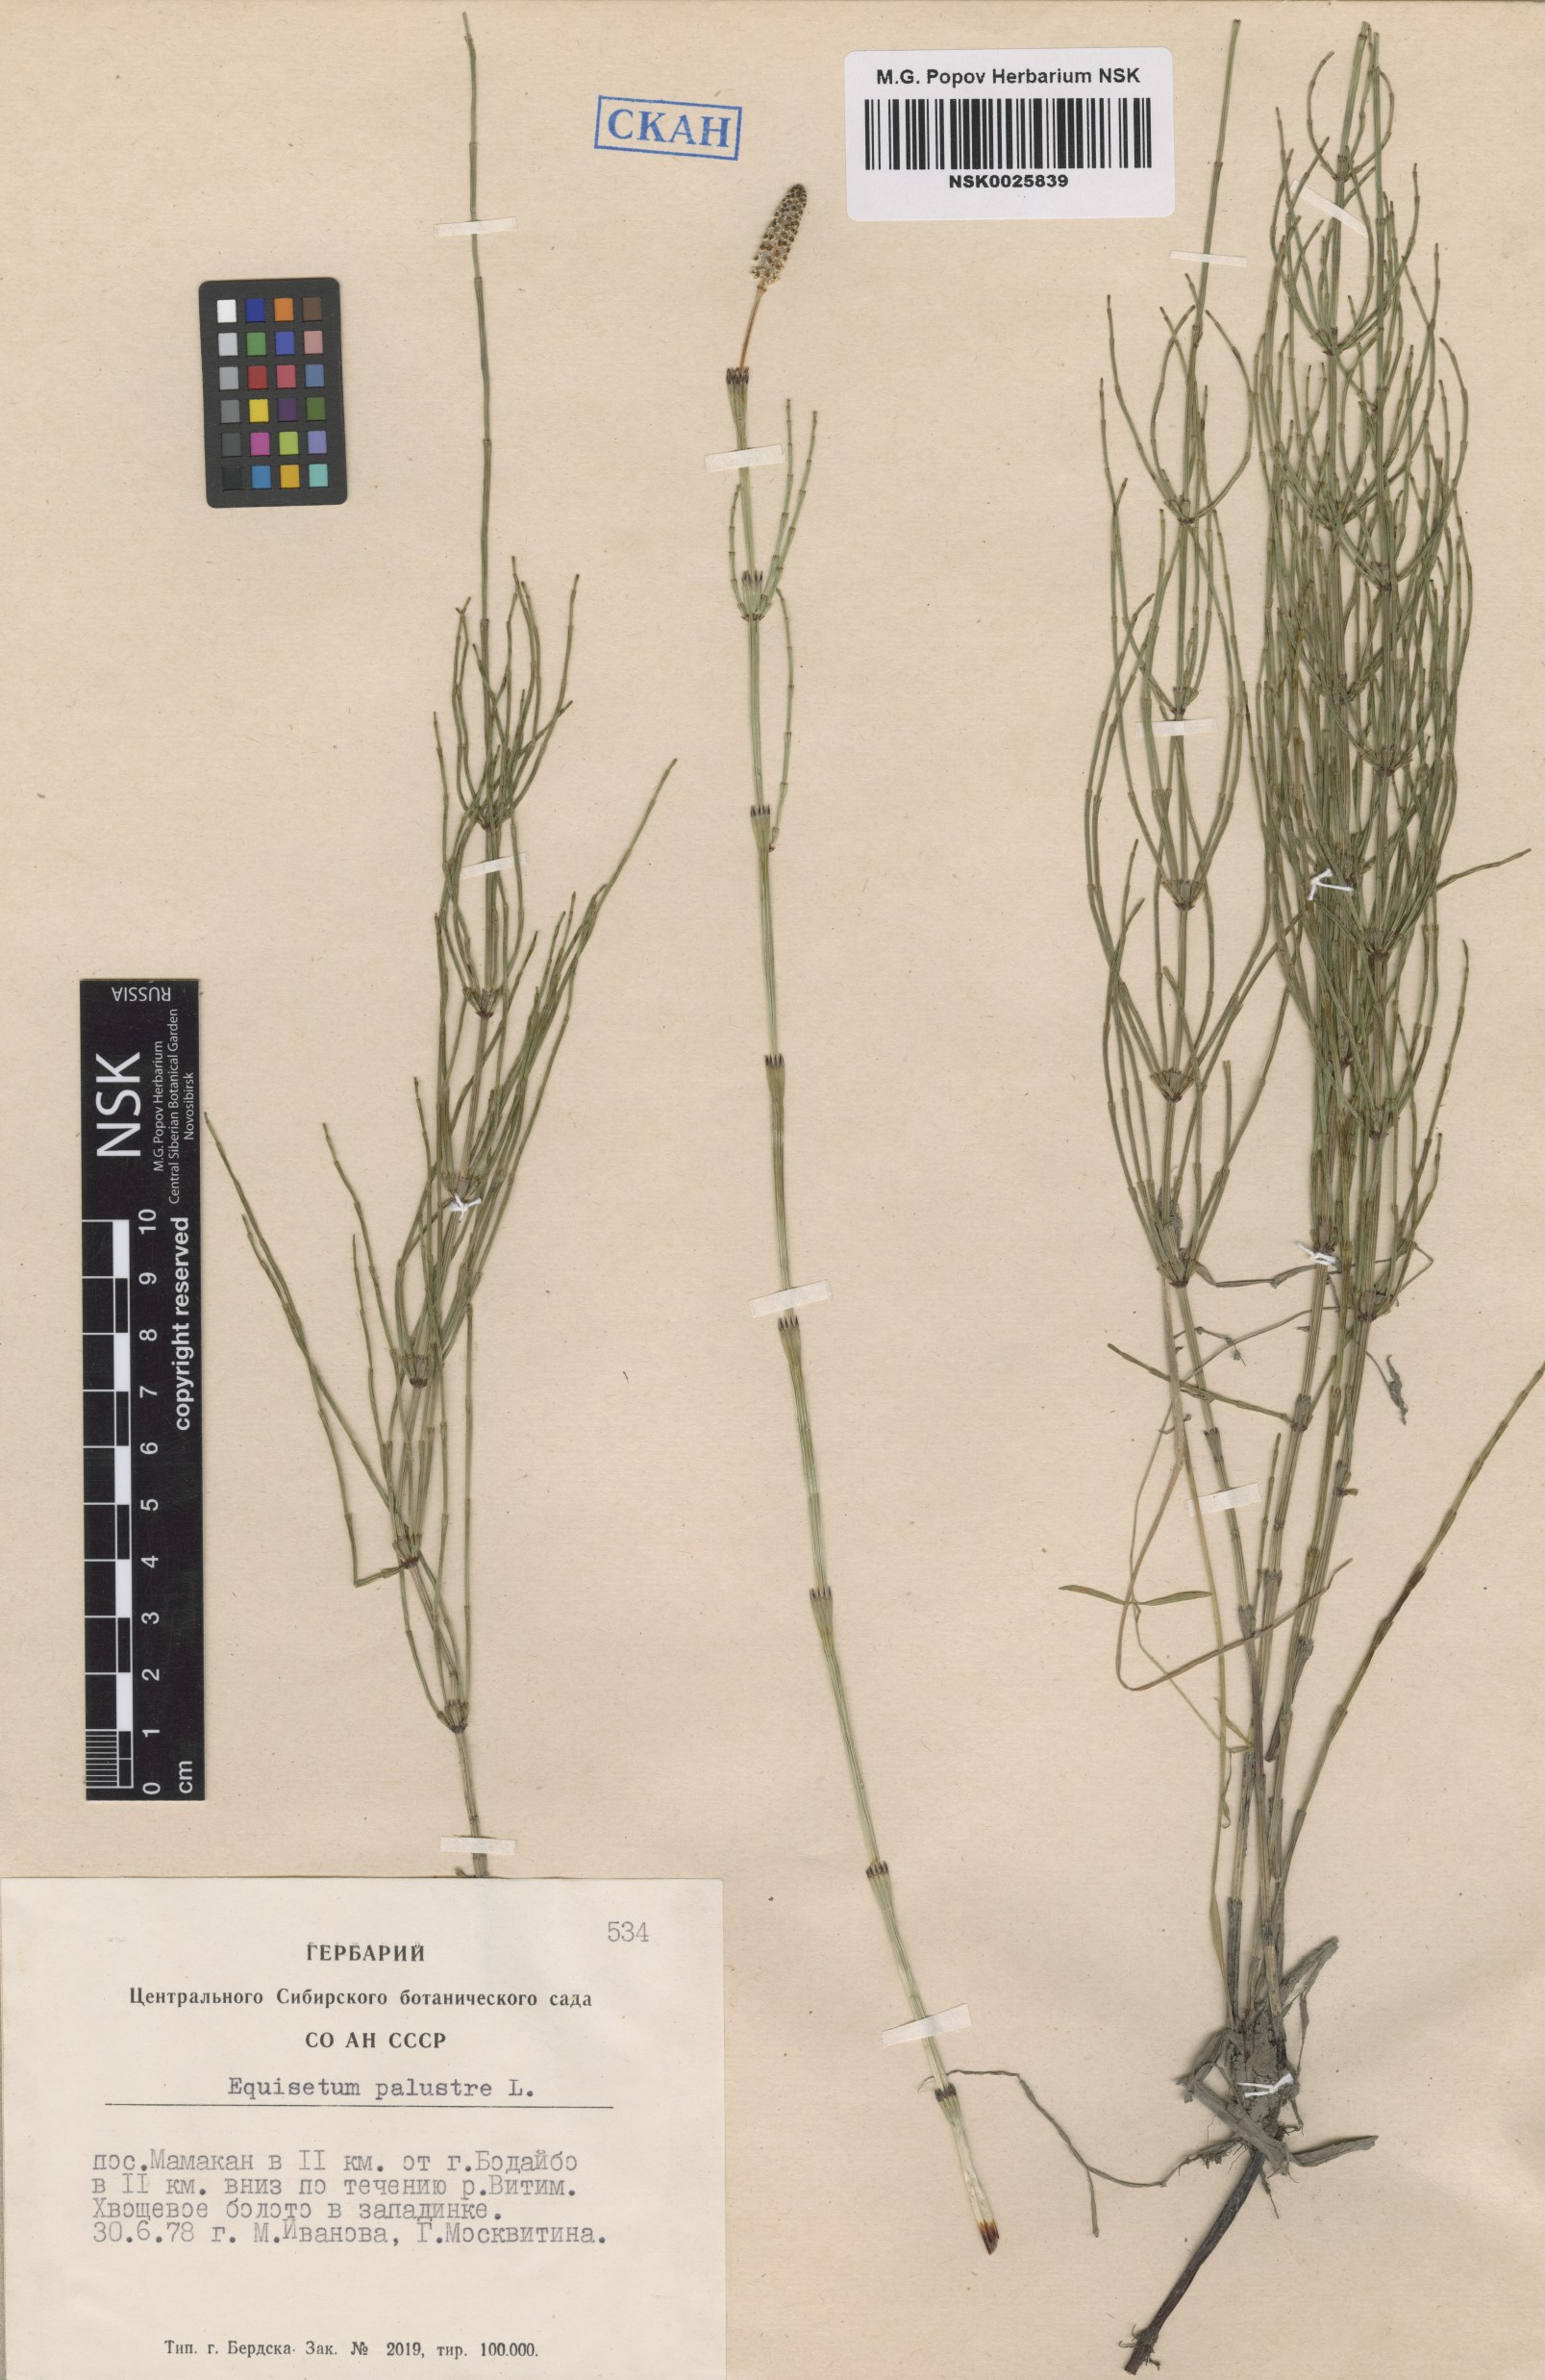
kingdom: Plantae
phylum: Tracheophyta
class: Polypodiopsida
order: Equisetales
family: Equisetaceae
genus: Equisetum
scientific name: Equisetum palustre
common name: Marsh horsetail
